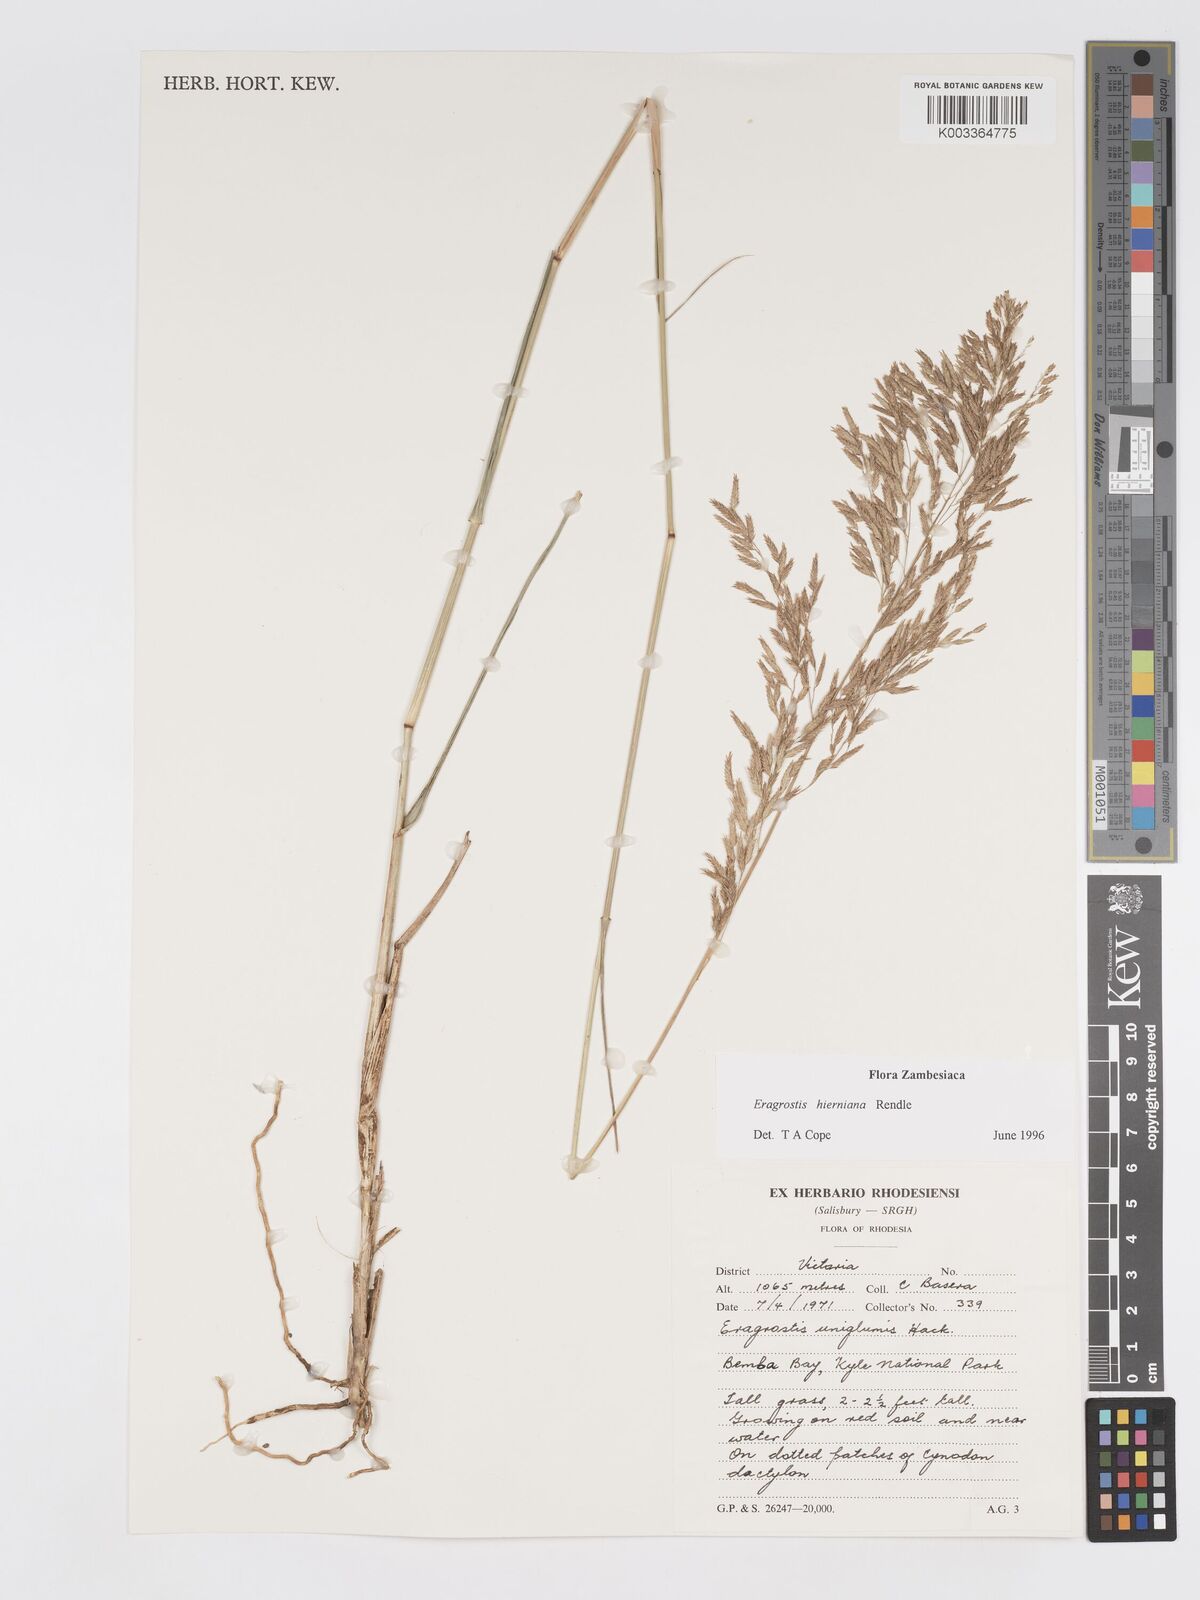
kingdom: Plantae
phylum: Tracheophyta
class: Liliopsida
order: Poales
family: Poaceae
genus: Eragrostis
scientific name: Eragrostis hierniana
